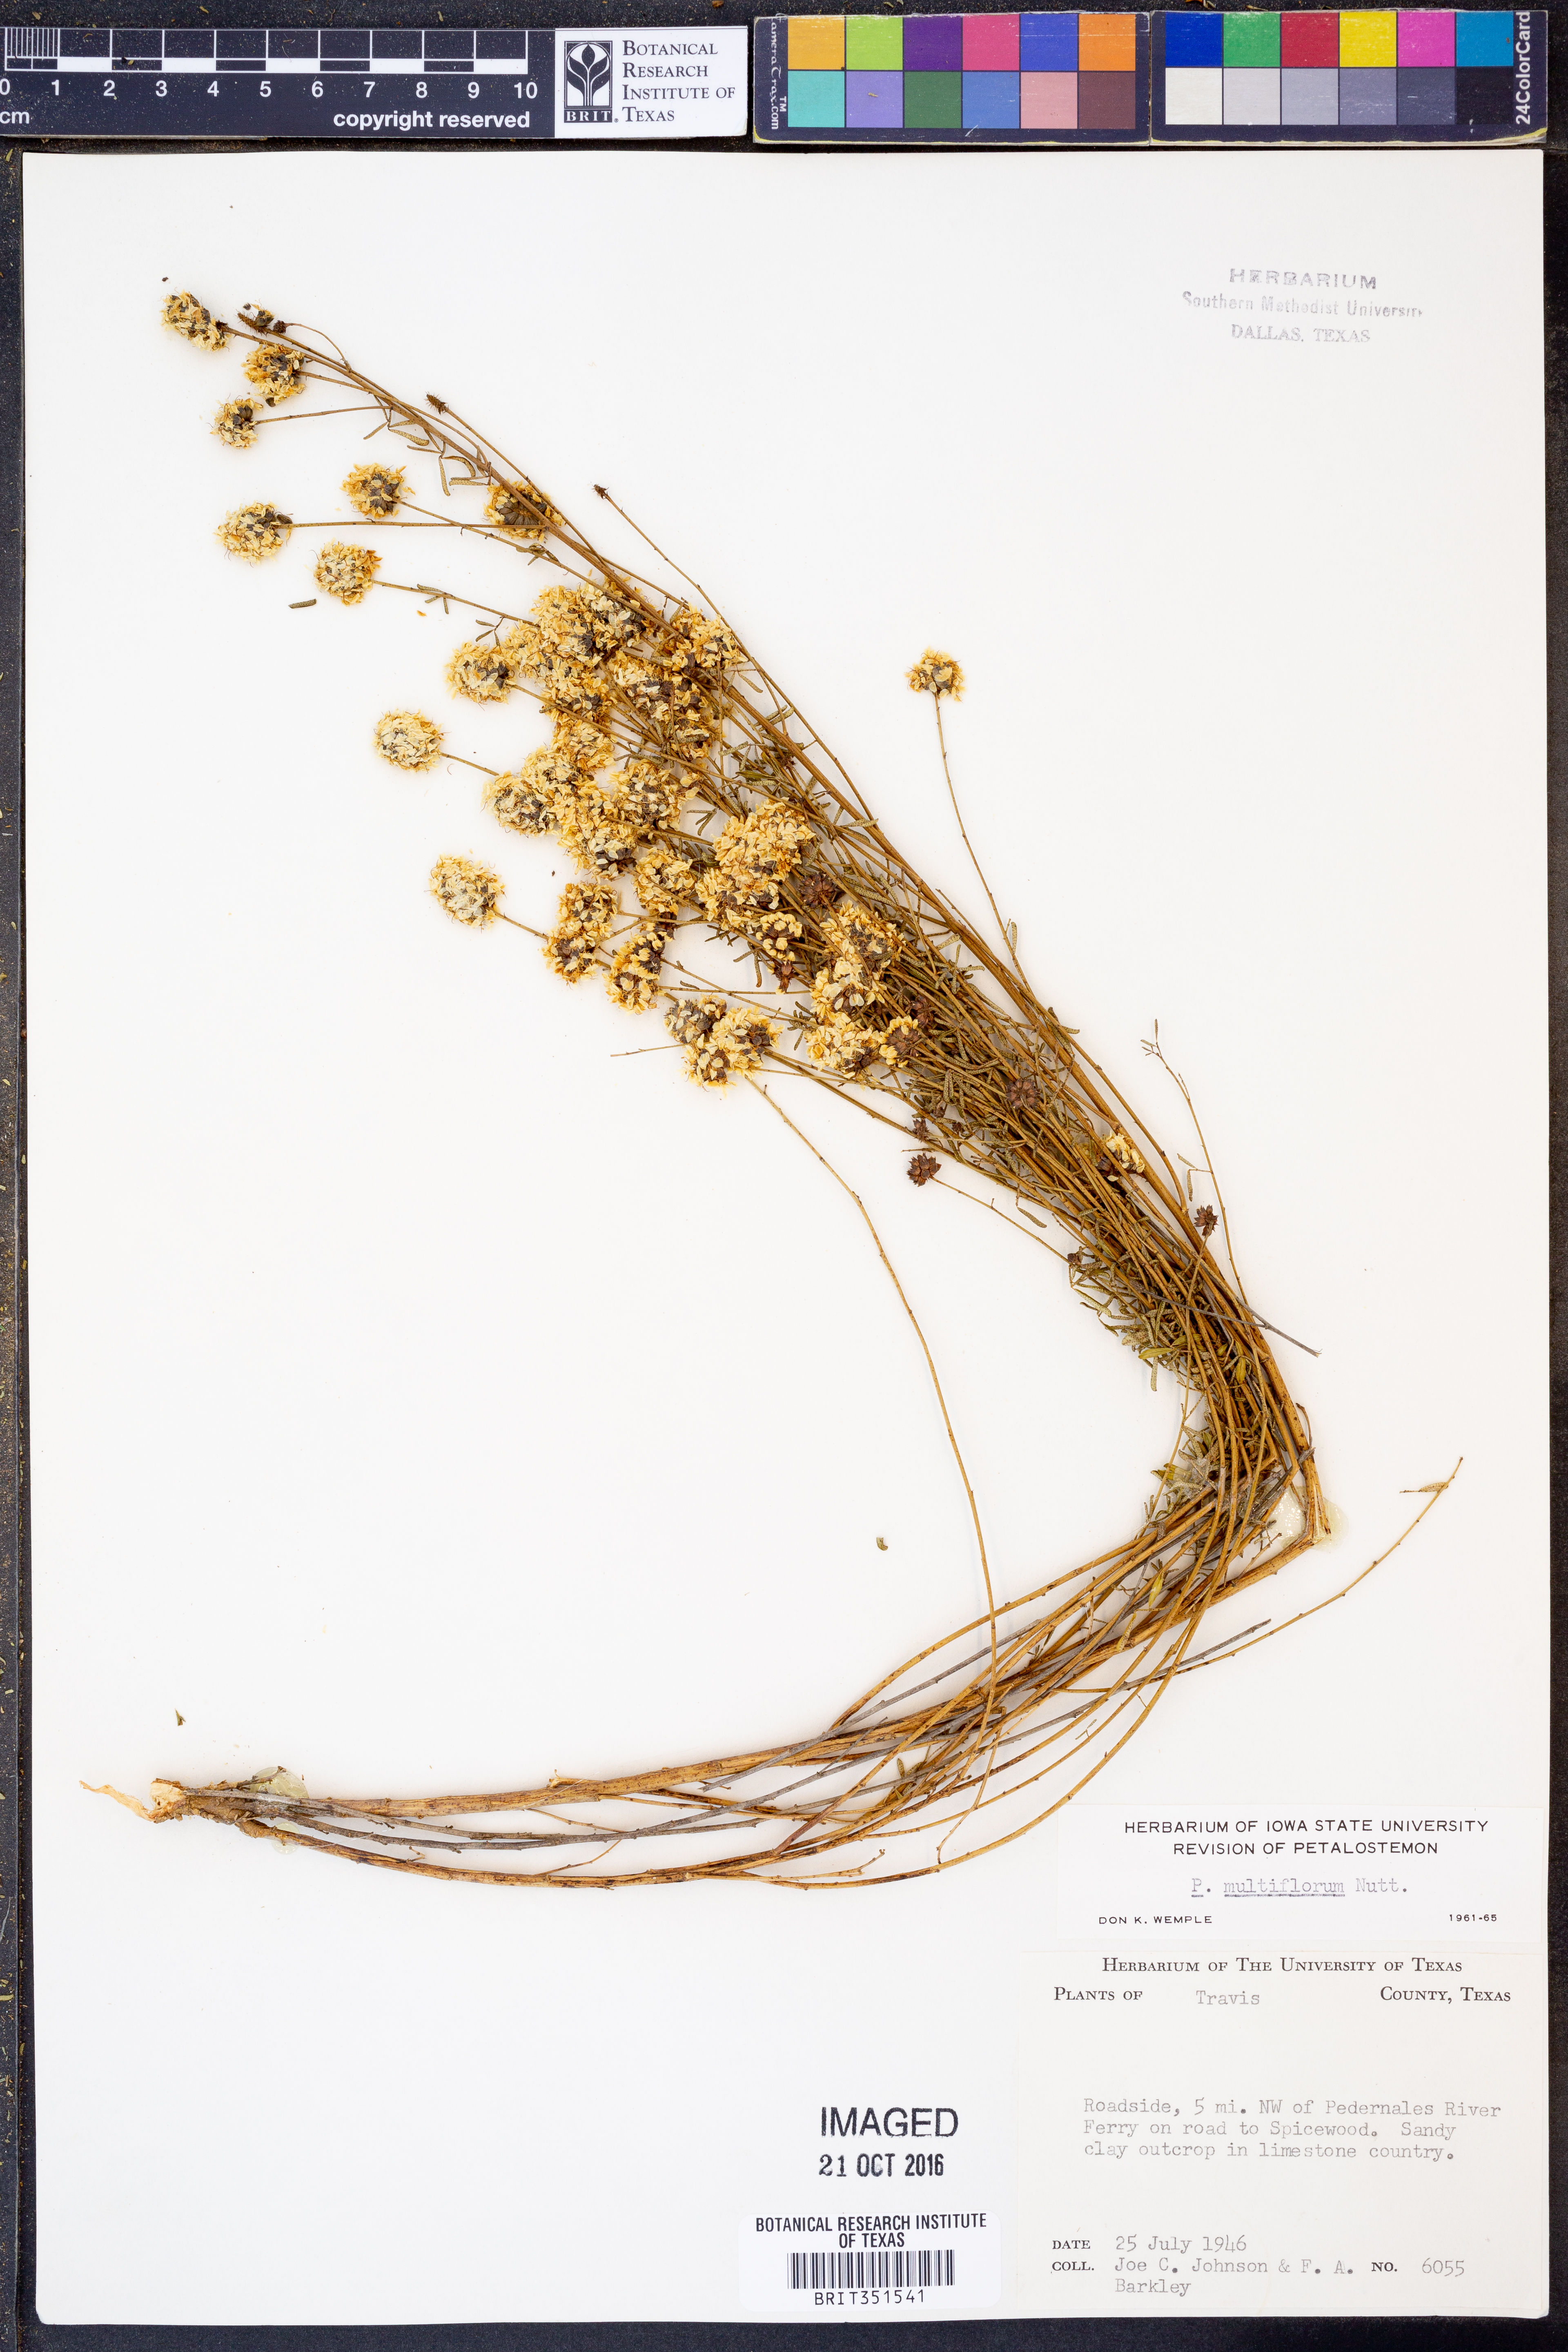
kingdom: Plantae
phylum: Tracheophyta
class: Magnoliopsida
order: Fabales
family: Fabaceae
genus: Dalea
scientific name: Dalea multiflora
